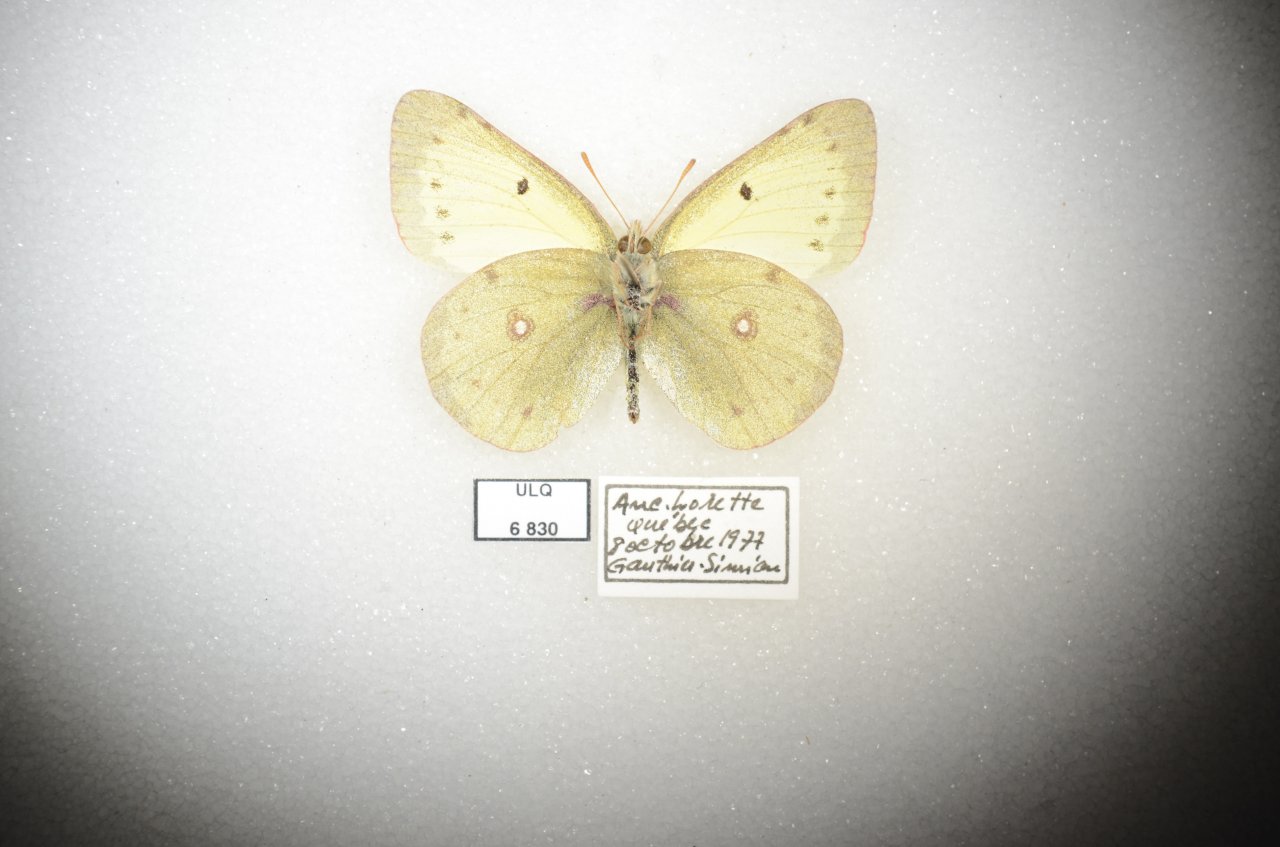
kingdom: Animalia
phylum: Arthropoda
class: Insecta
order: Lepidoptera
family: Pieridae
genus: Colias
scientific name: Colias philodice
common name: Clouded Sulphur
